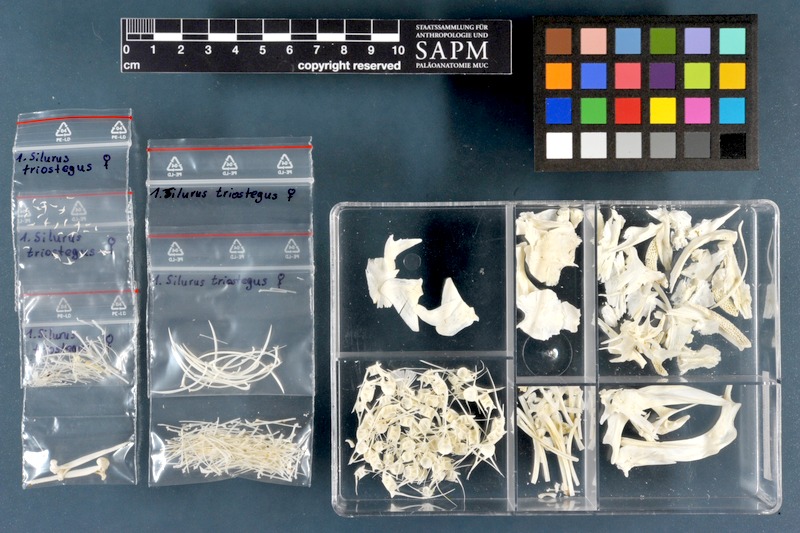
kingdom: Animalia
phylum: Chordata
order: Siluriformes
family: Siluridae
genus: Silurus
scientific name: Silurus triostegus
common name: Mesopotamian catfish
